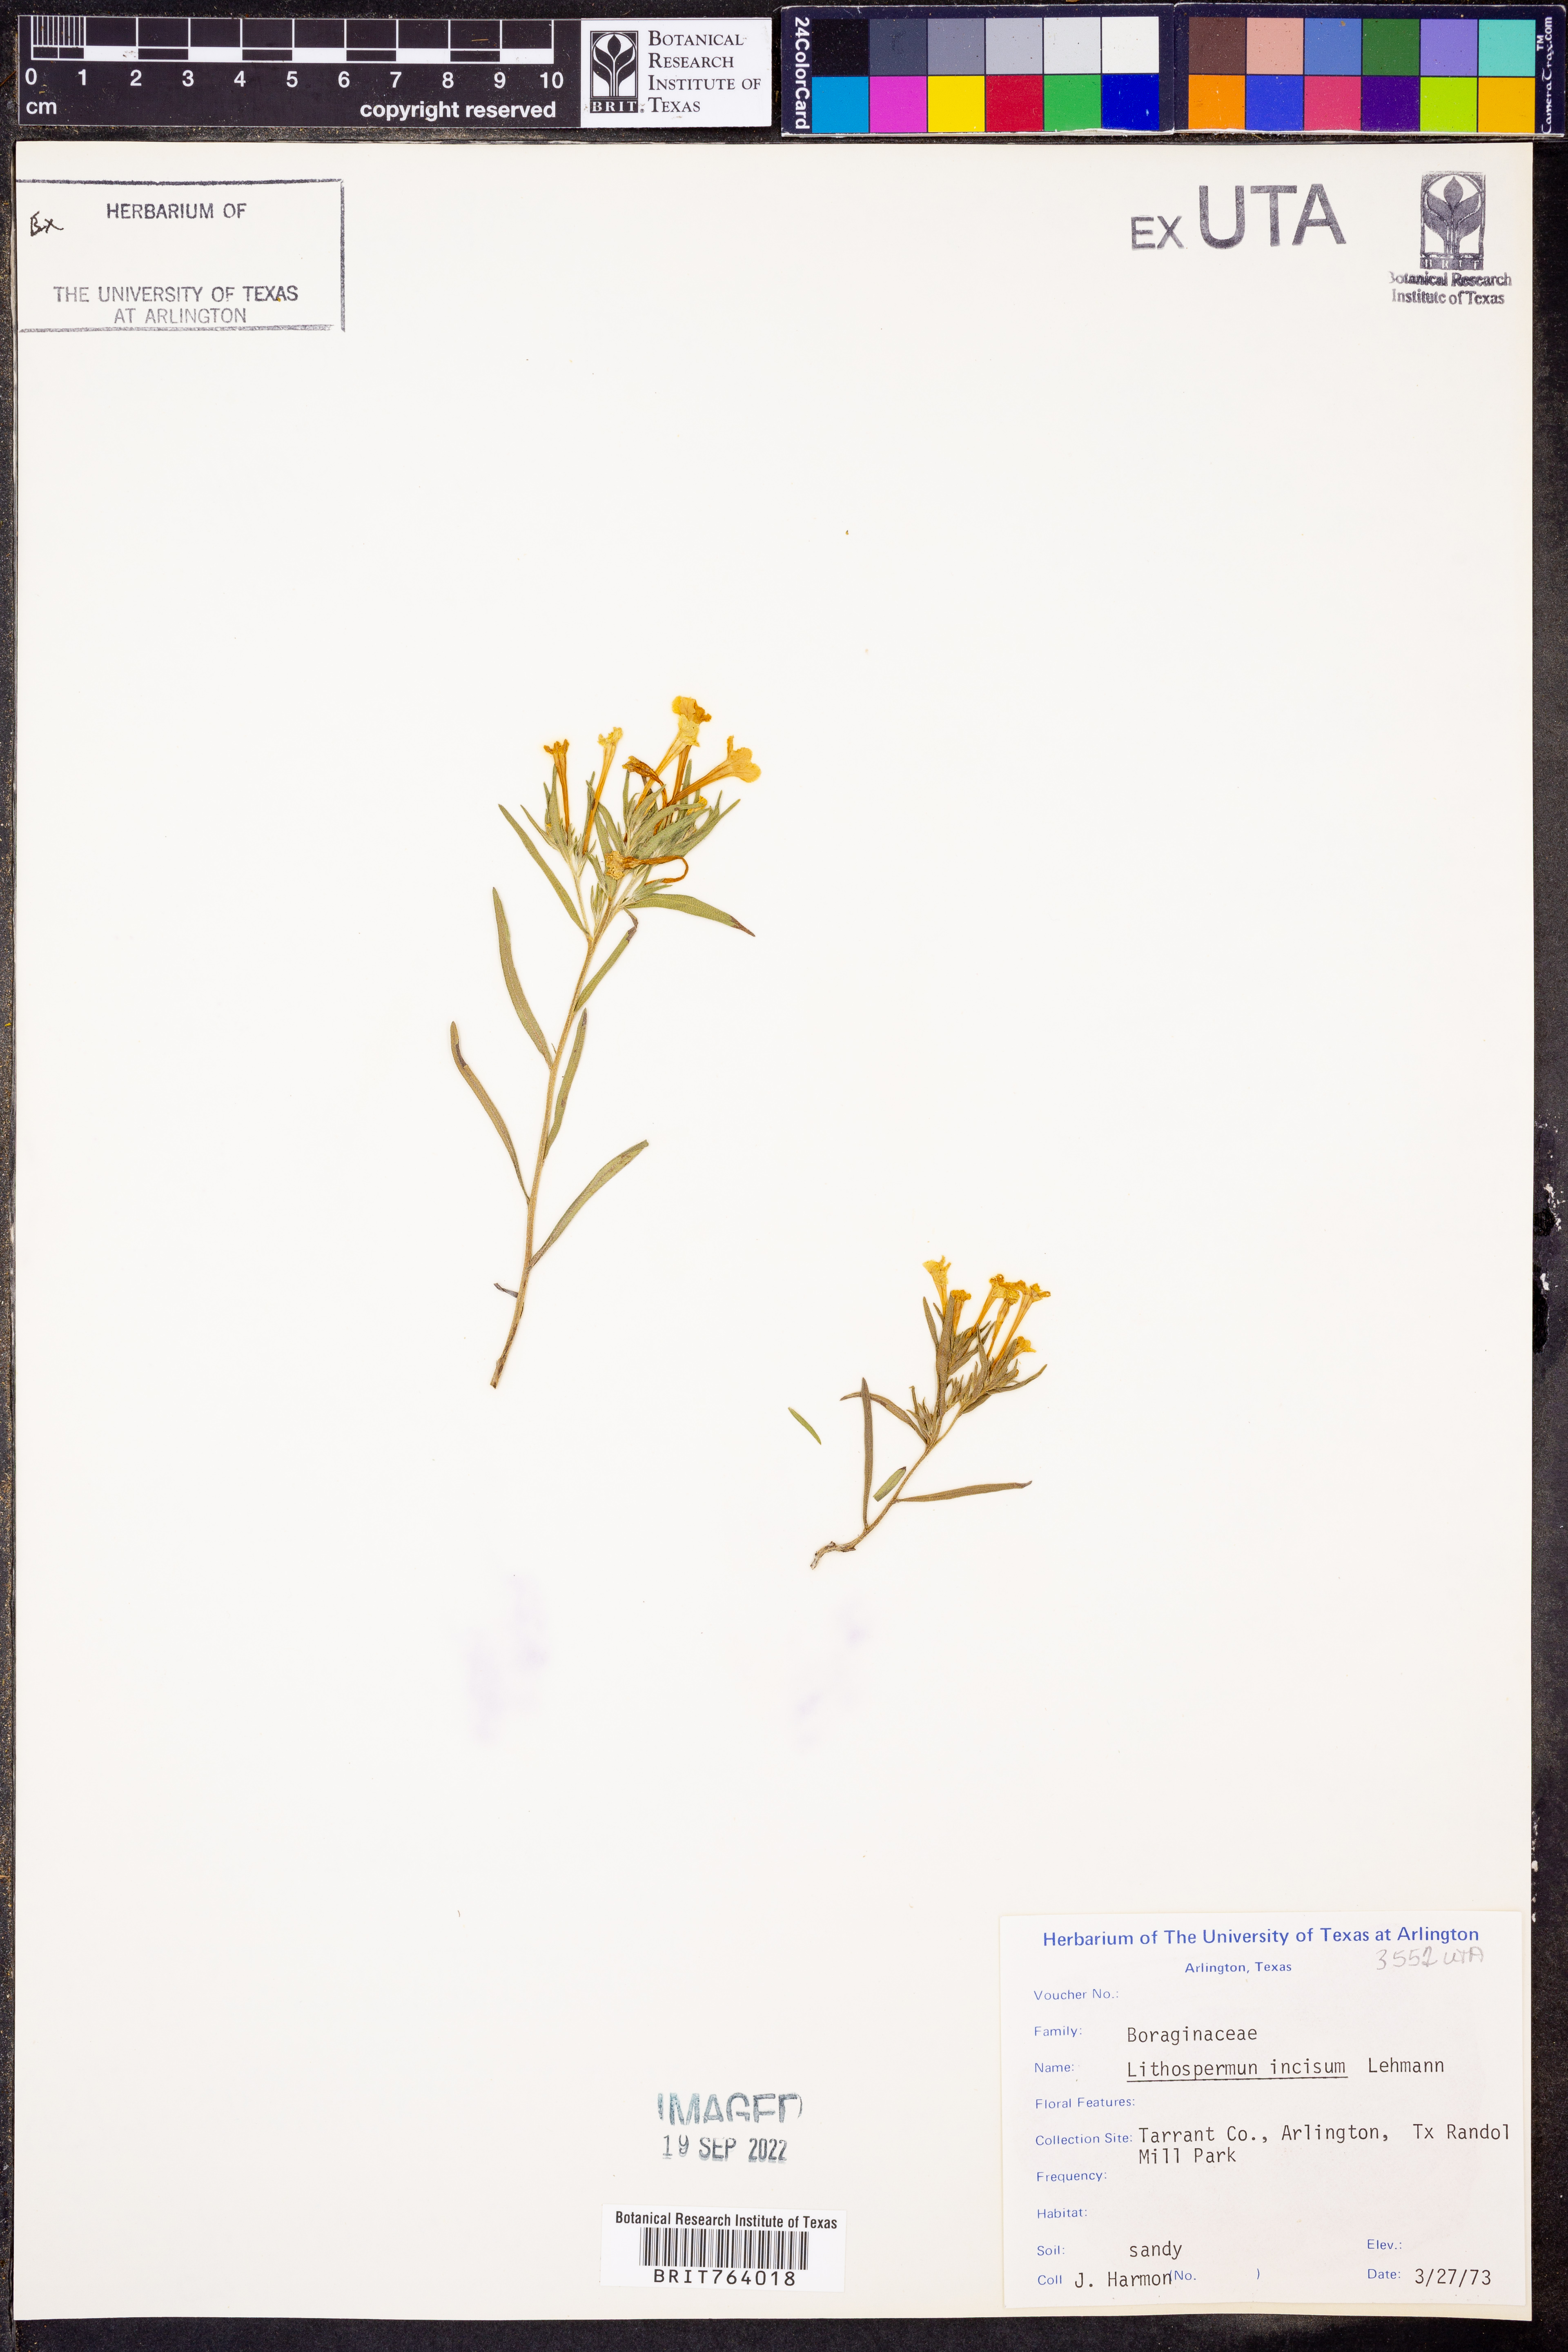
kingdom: Plantae
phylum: Tracheophyta
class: Magnoliopsida
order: Boraginales
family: Boraginaceae
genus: Lithospermum
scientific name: Lithospermum incisum
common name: Fringed gromwell
